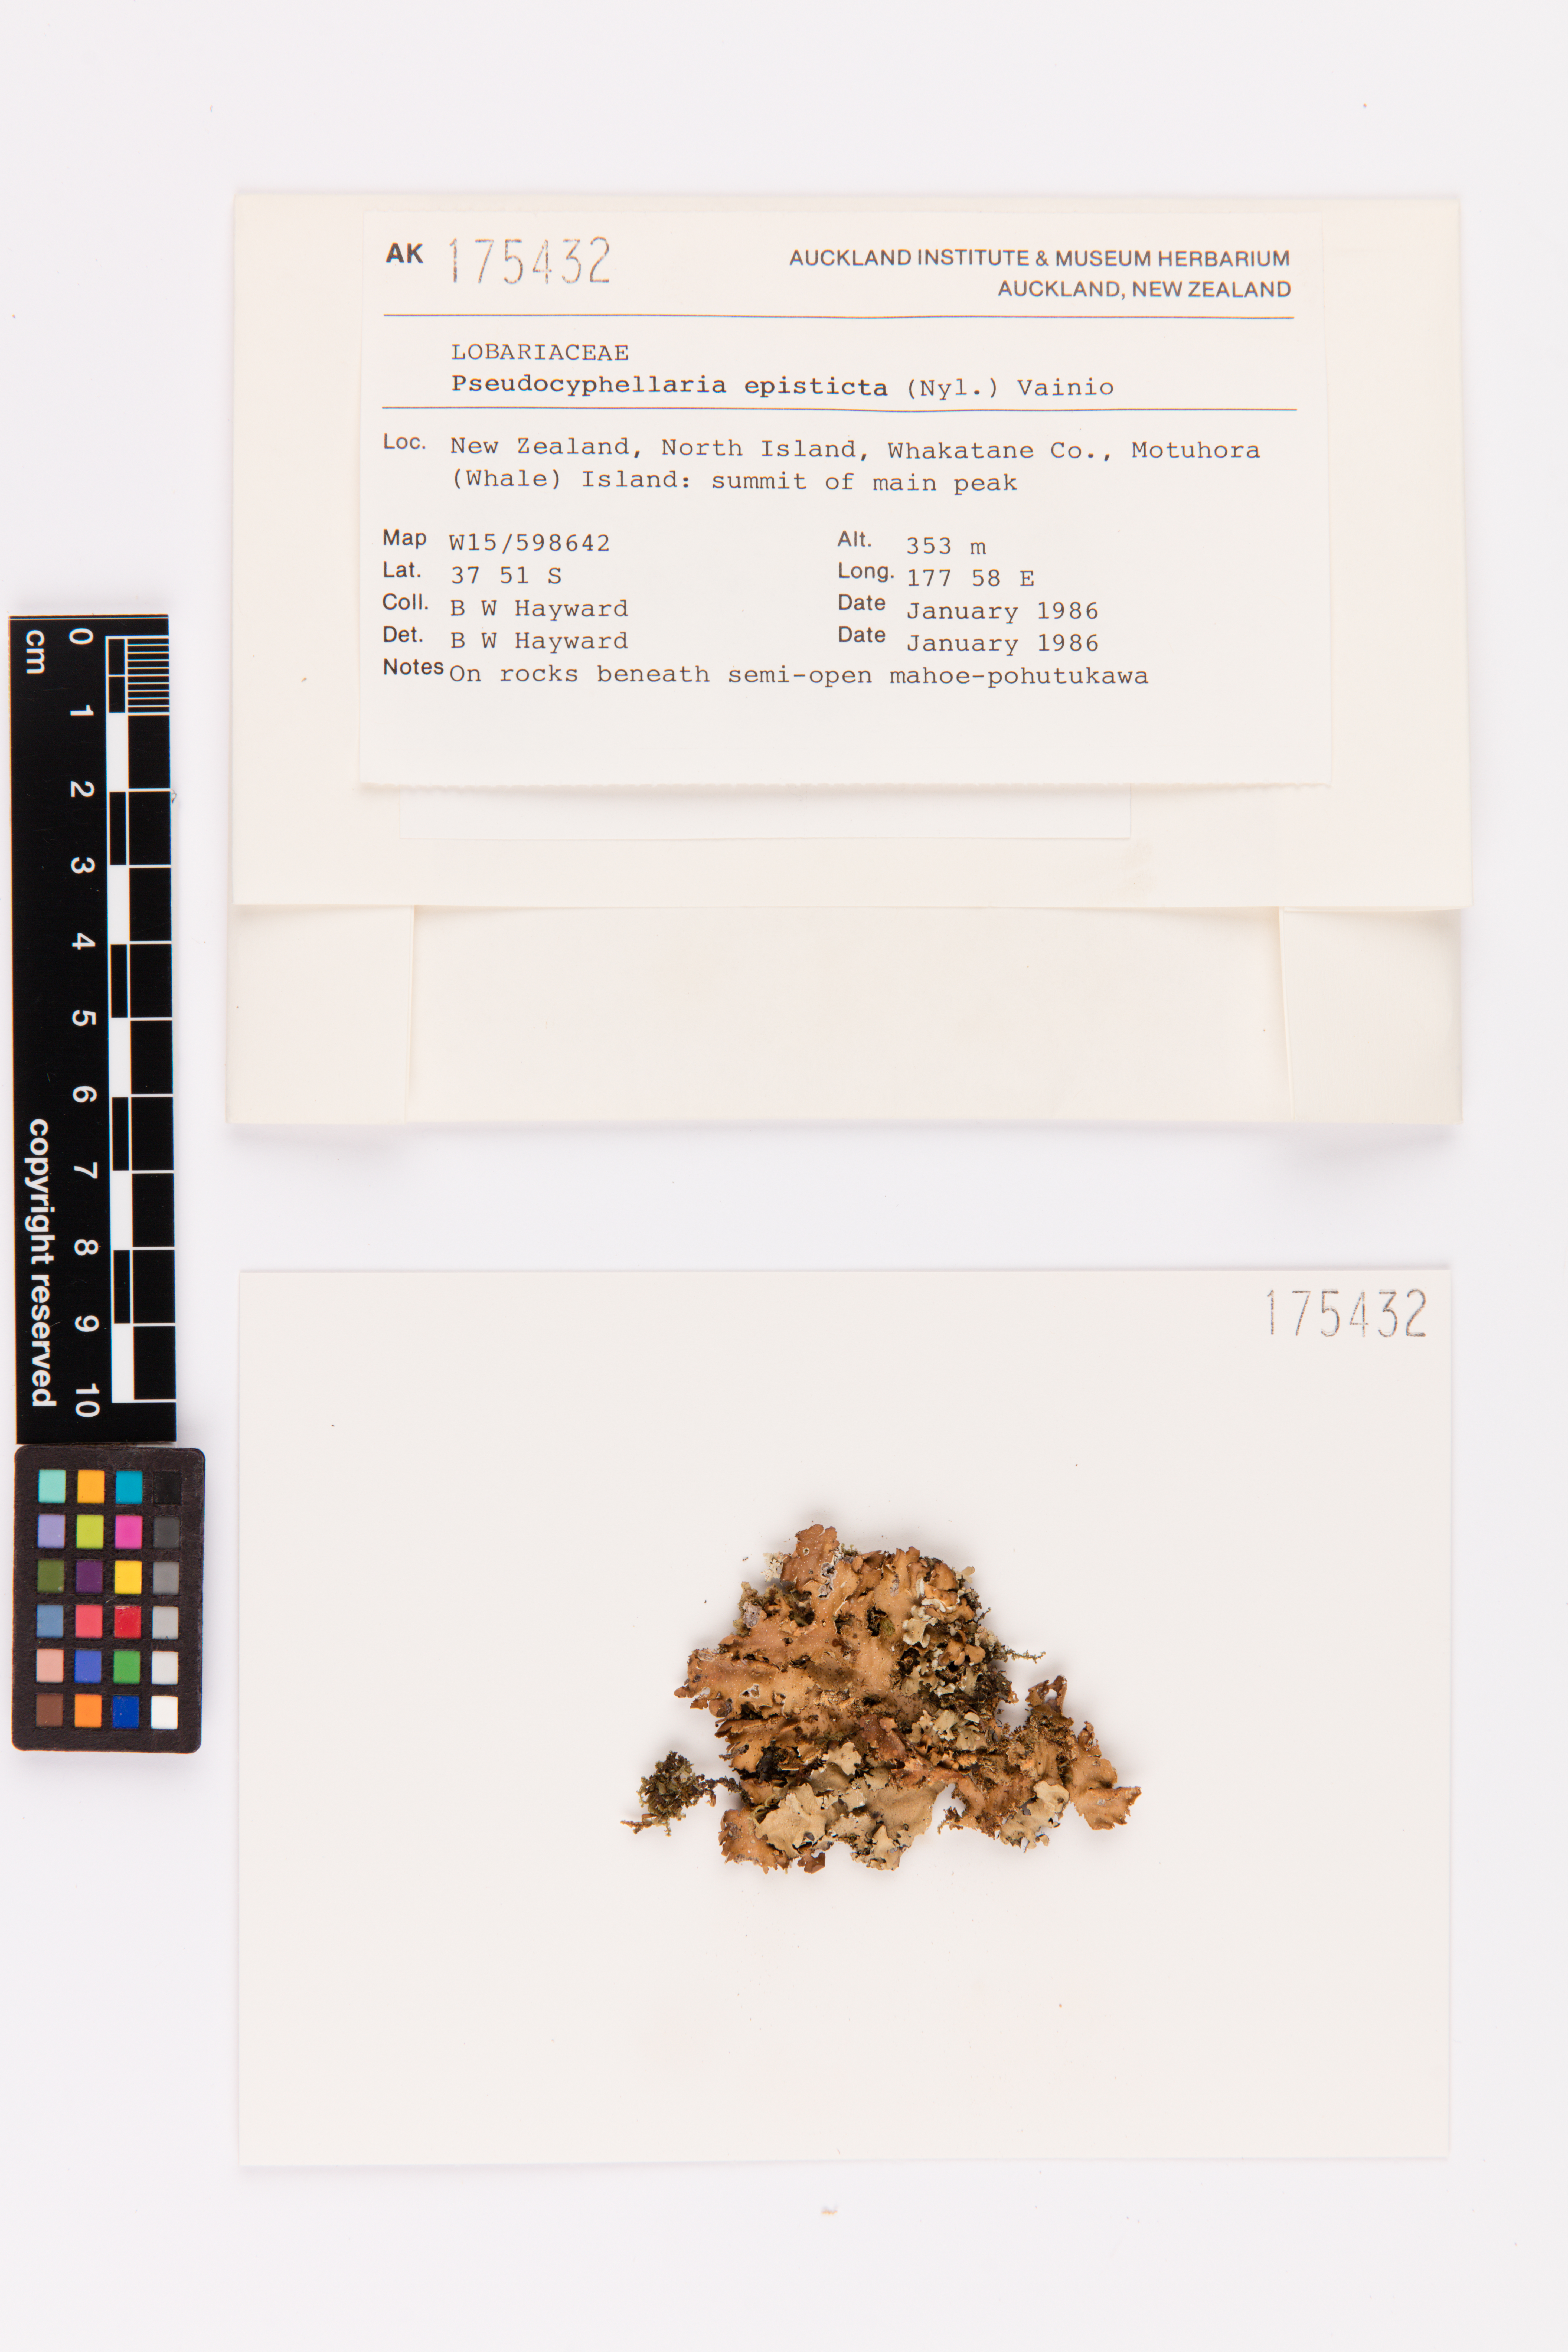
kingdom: Fungi
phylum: Ascomycota
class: Lecanoromycetes
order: Peltigerales
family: Lobariaceae
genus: Pseudocyphellaria
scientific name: Pseudocyphellaria episticta
